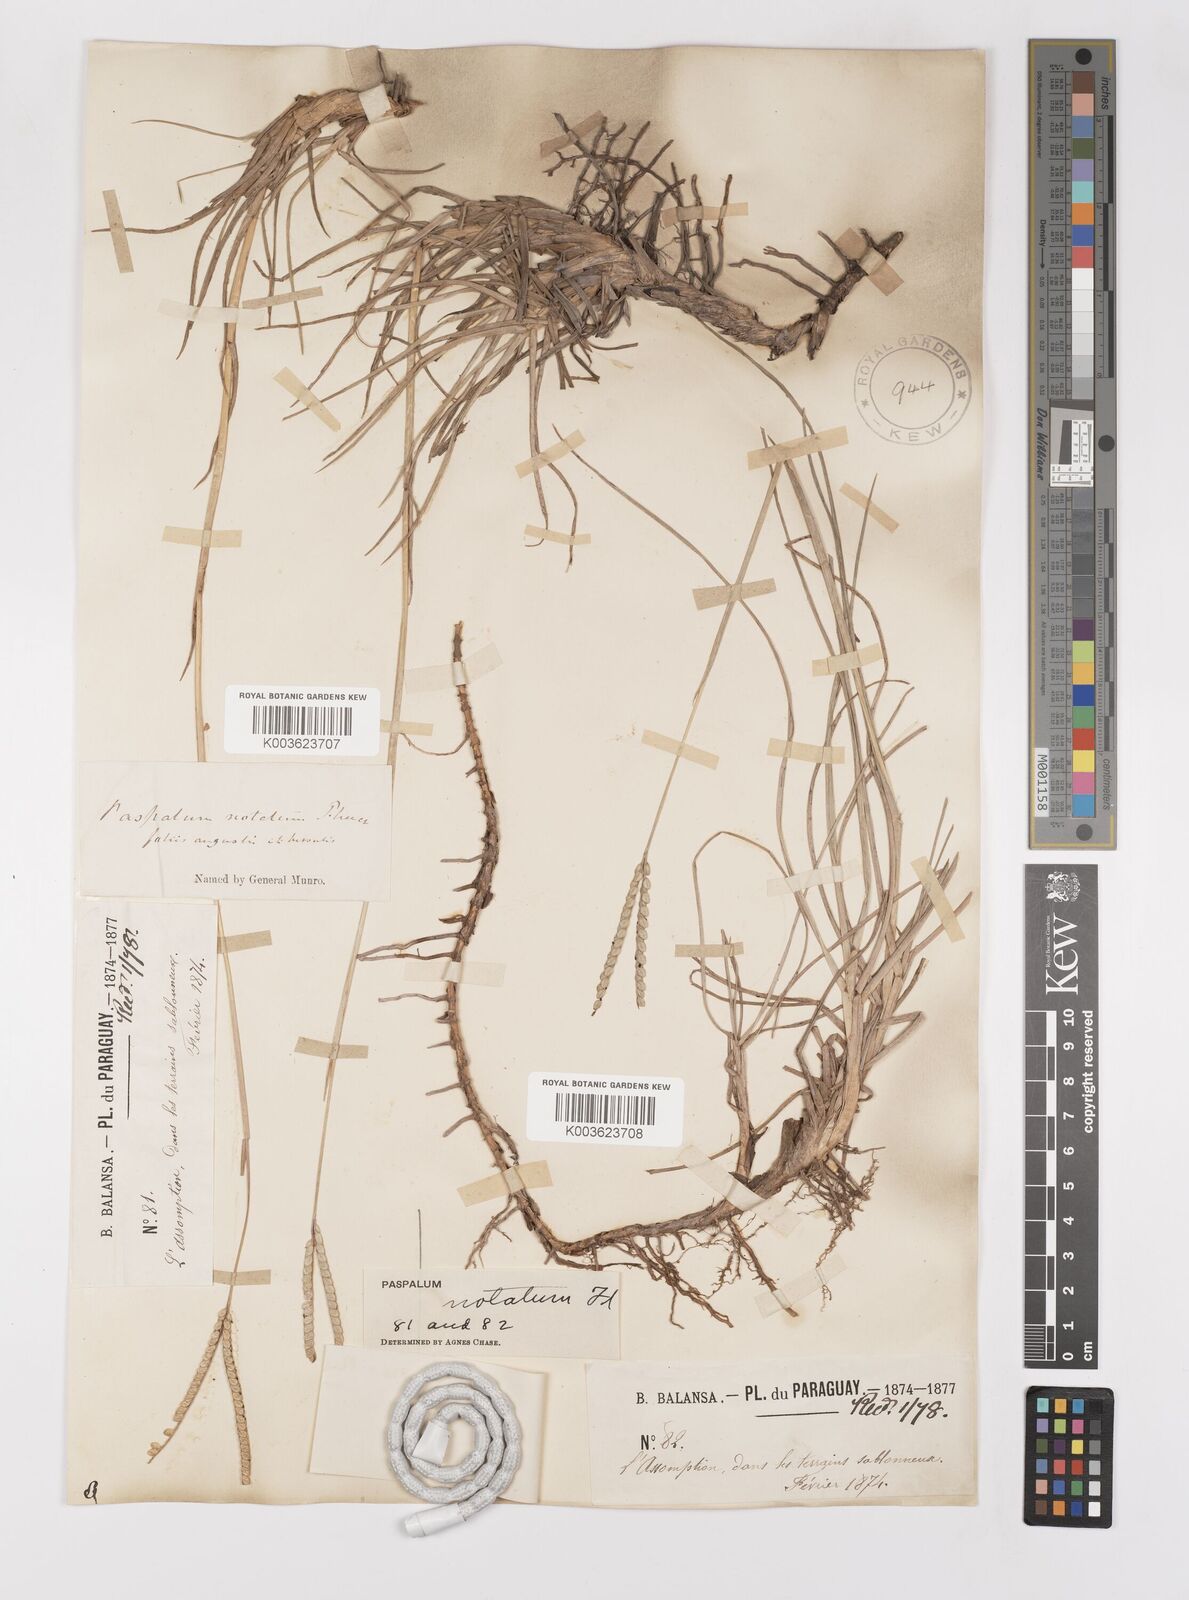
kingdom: Plantae
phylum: Tracheophyta
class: Liliopsida
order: Poales
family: Poaceae
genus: Paspalum
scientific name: Paspalum notatum
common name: Bahiagrass
